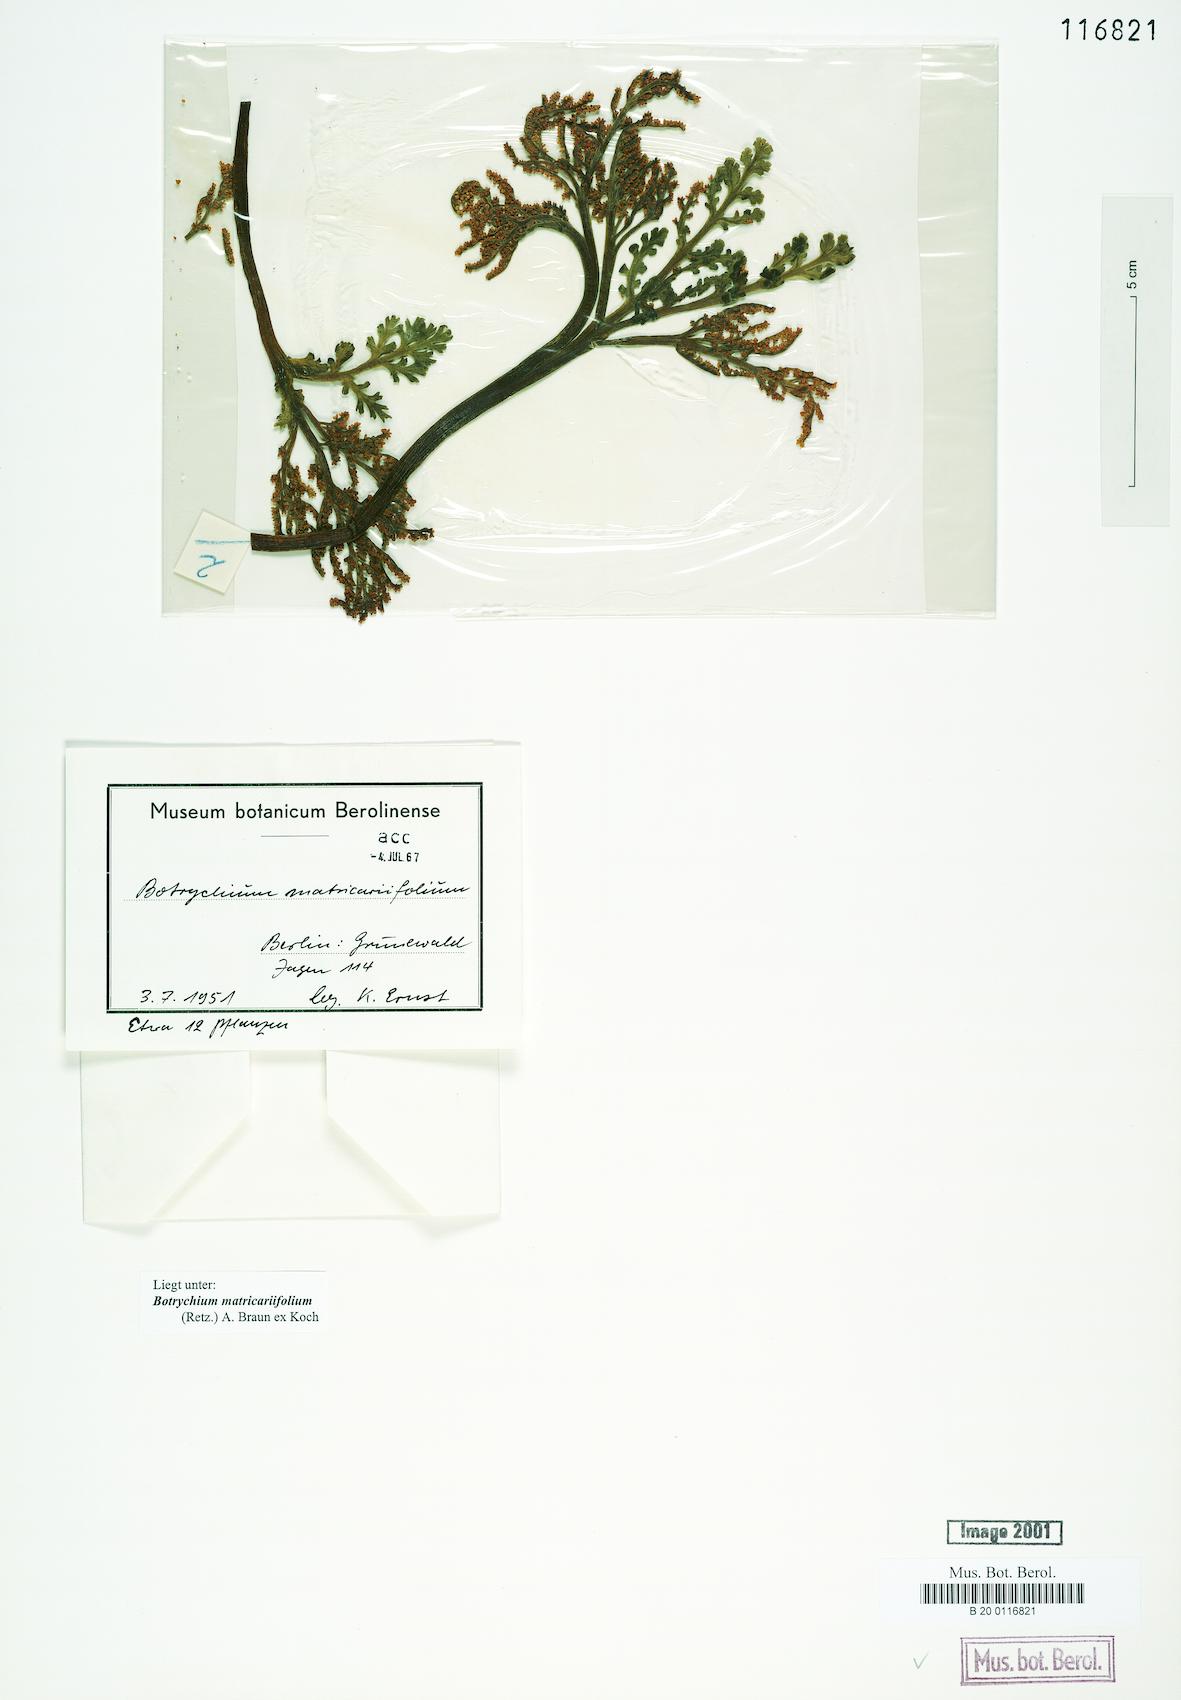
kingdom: Plantae
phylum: Tracheophyta
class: Polypodiopsida
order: Ophioglossales
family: Ophioglossaceae
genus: Botrychium
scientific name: Botrychium matricariifolium
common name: Branched moonwort
